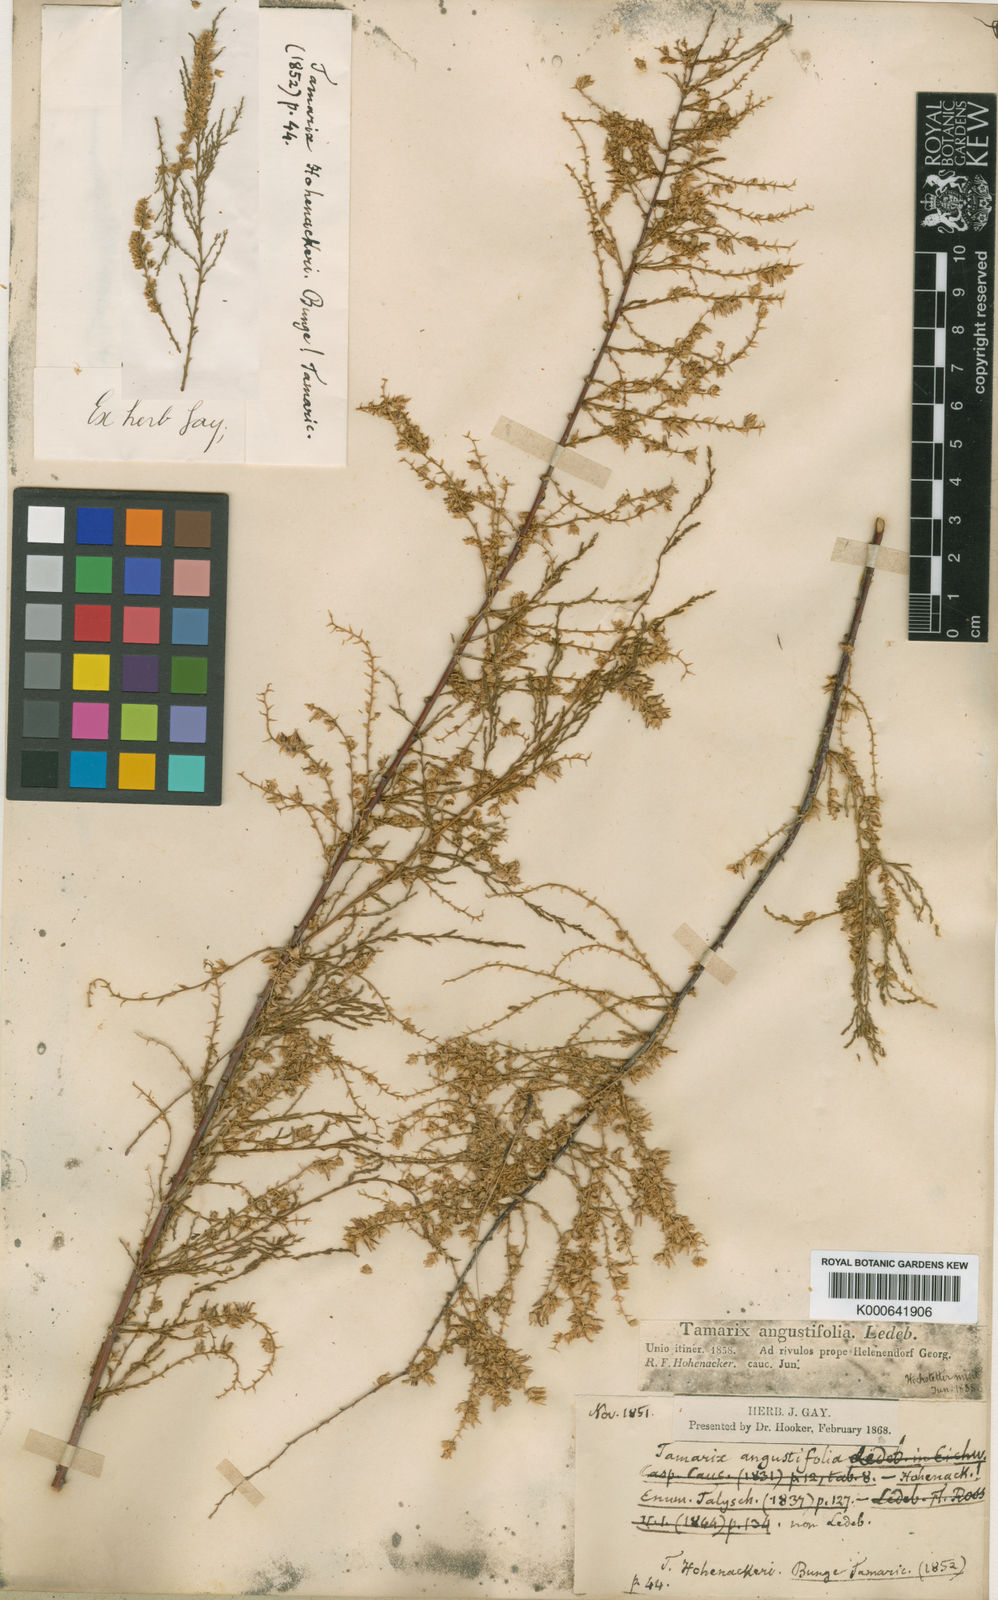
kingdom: Plantae
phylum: Tracheophyta
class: Magnoliopsida
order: Caryophyllales
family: Tamaricaceae
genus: Tamarix
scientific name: Tamarix hohenackeri
